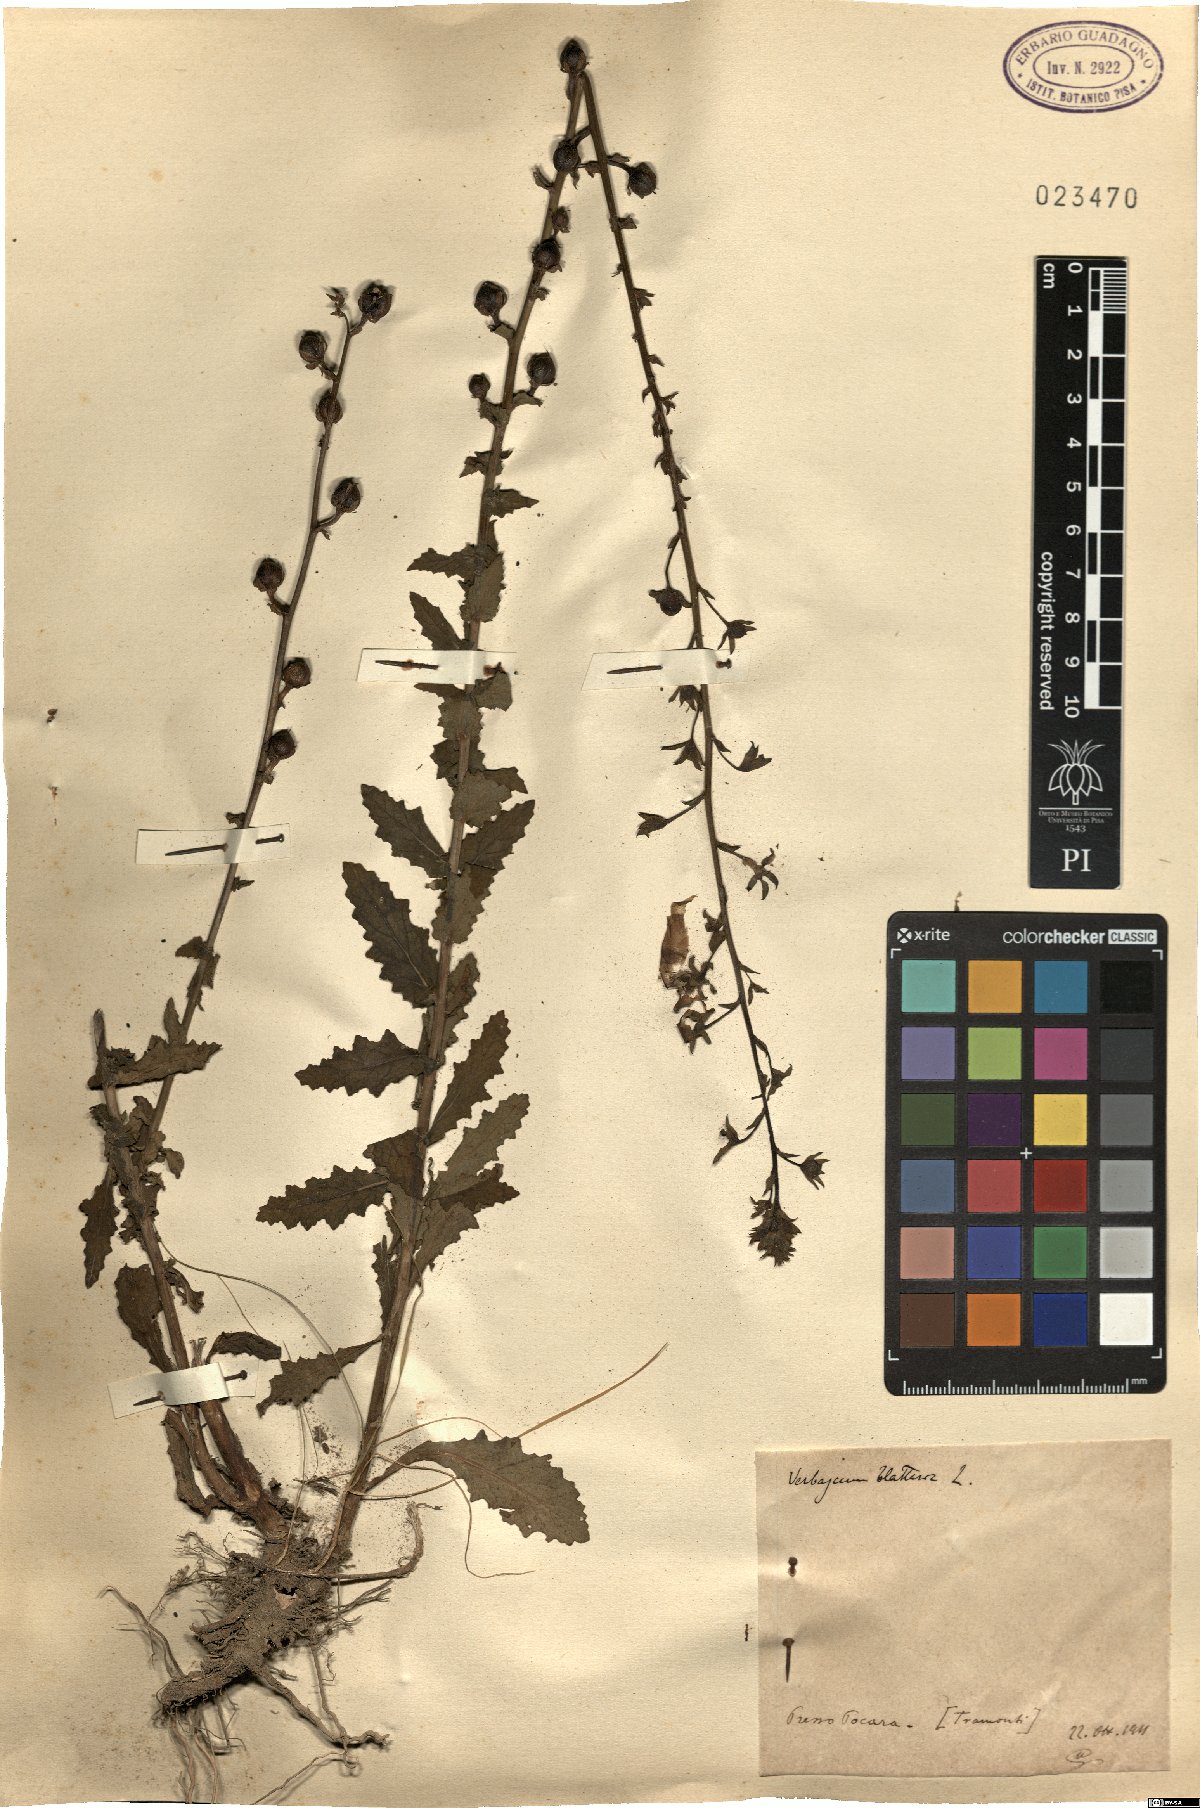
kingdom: Plantae
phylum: Tracheophyta
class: Magnoliopsida
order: Lamiales
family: Scrophulariaceae
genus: Verbascum
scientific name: Verbascum blattaria
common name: Moth mullein
